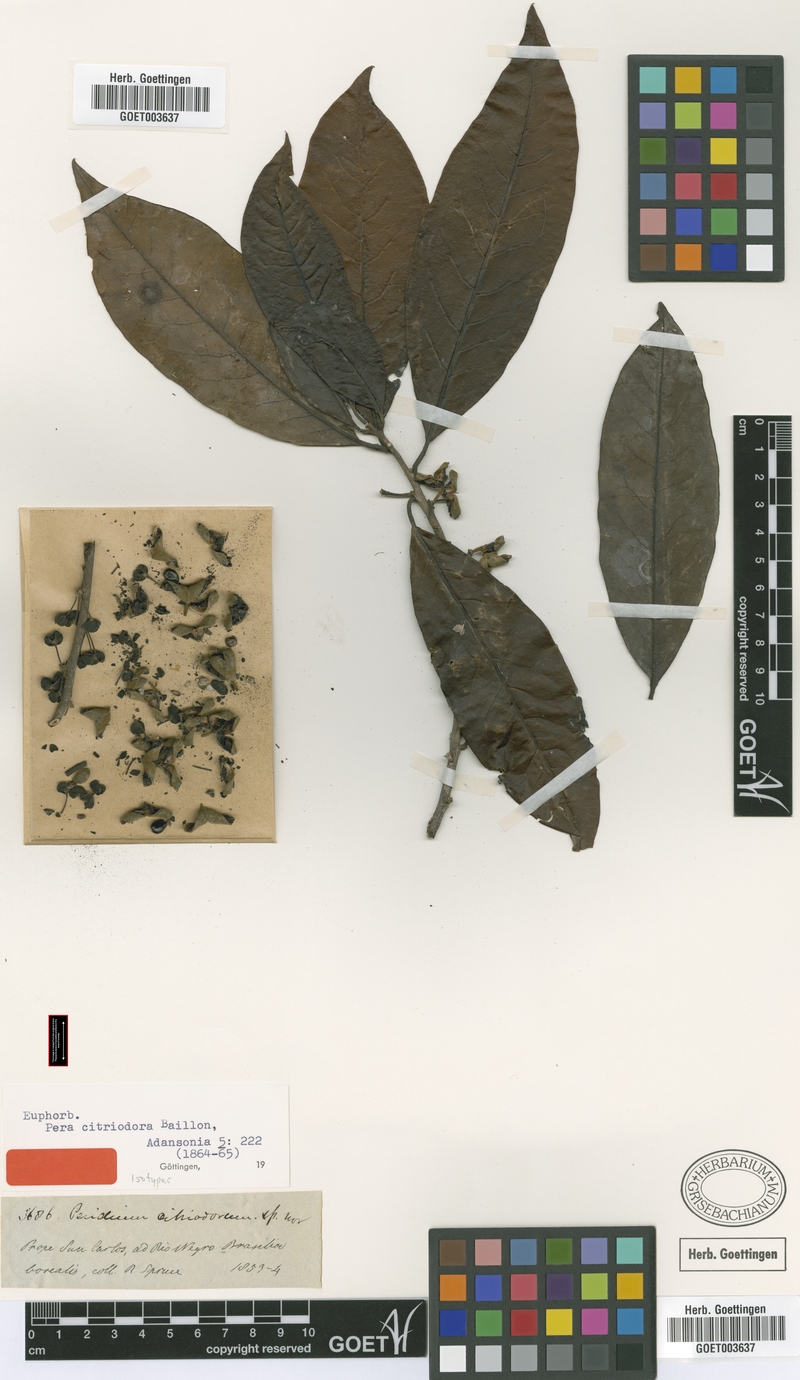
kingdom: Plantae
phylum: Tracheophyta
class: Magnoliopsida
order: Malpighiales
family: Peraceae
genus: Pera
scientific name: Pera citriodora
